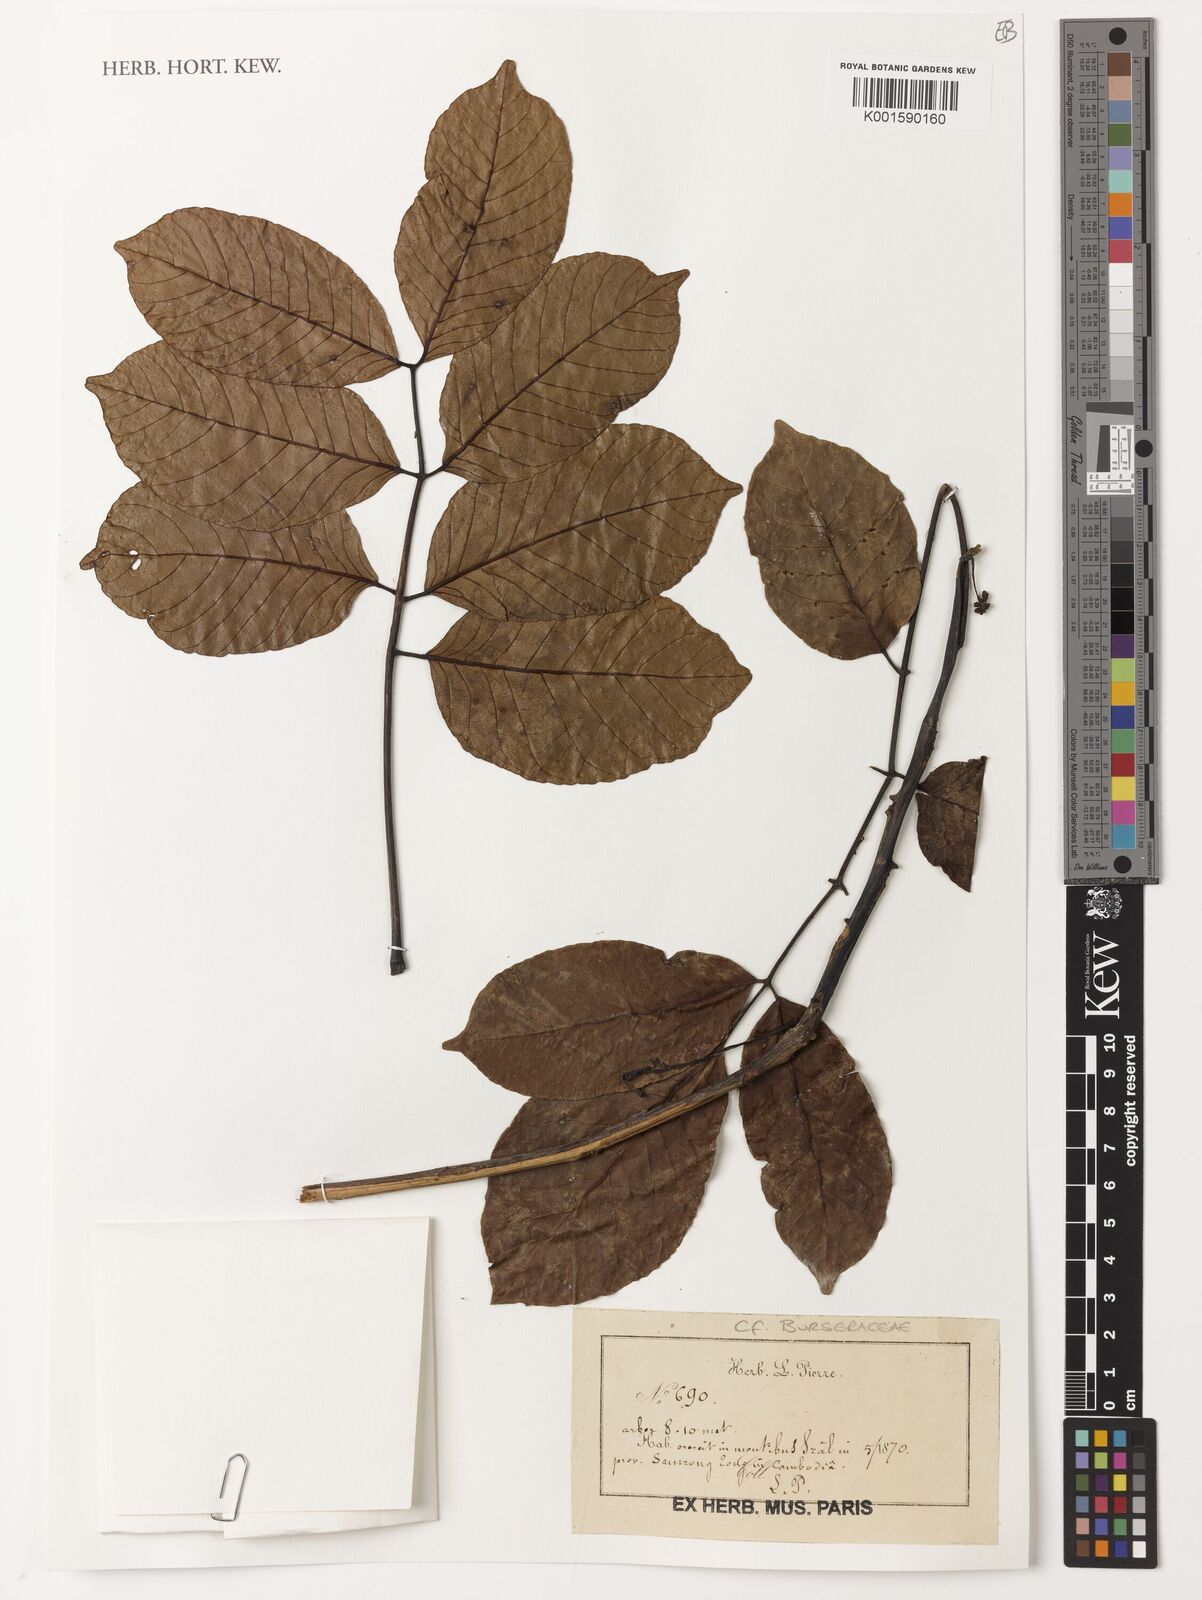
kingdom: Plantae
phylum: Tracheophyta
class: Magnoliopsida
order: Sapindales
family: Burseraceae
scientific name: Burseraceae
